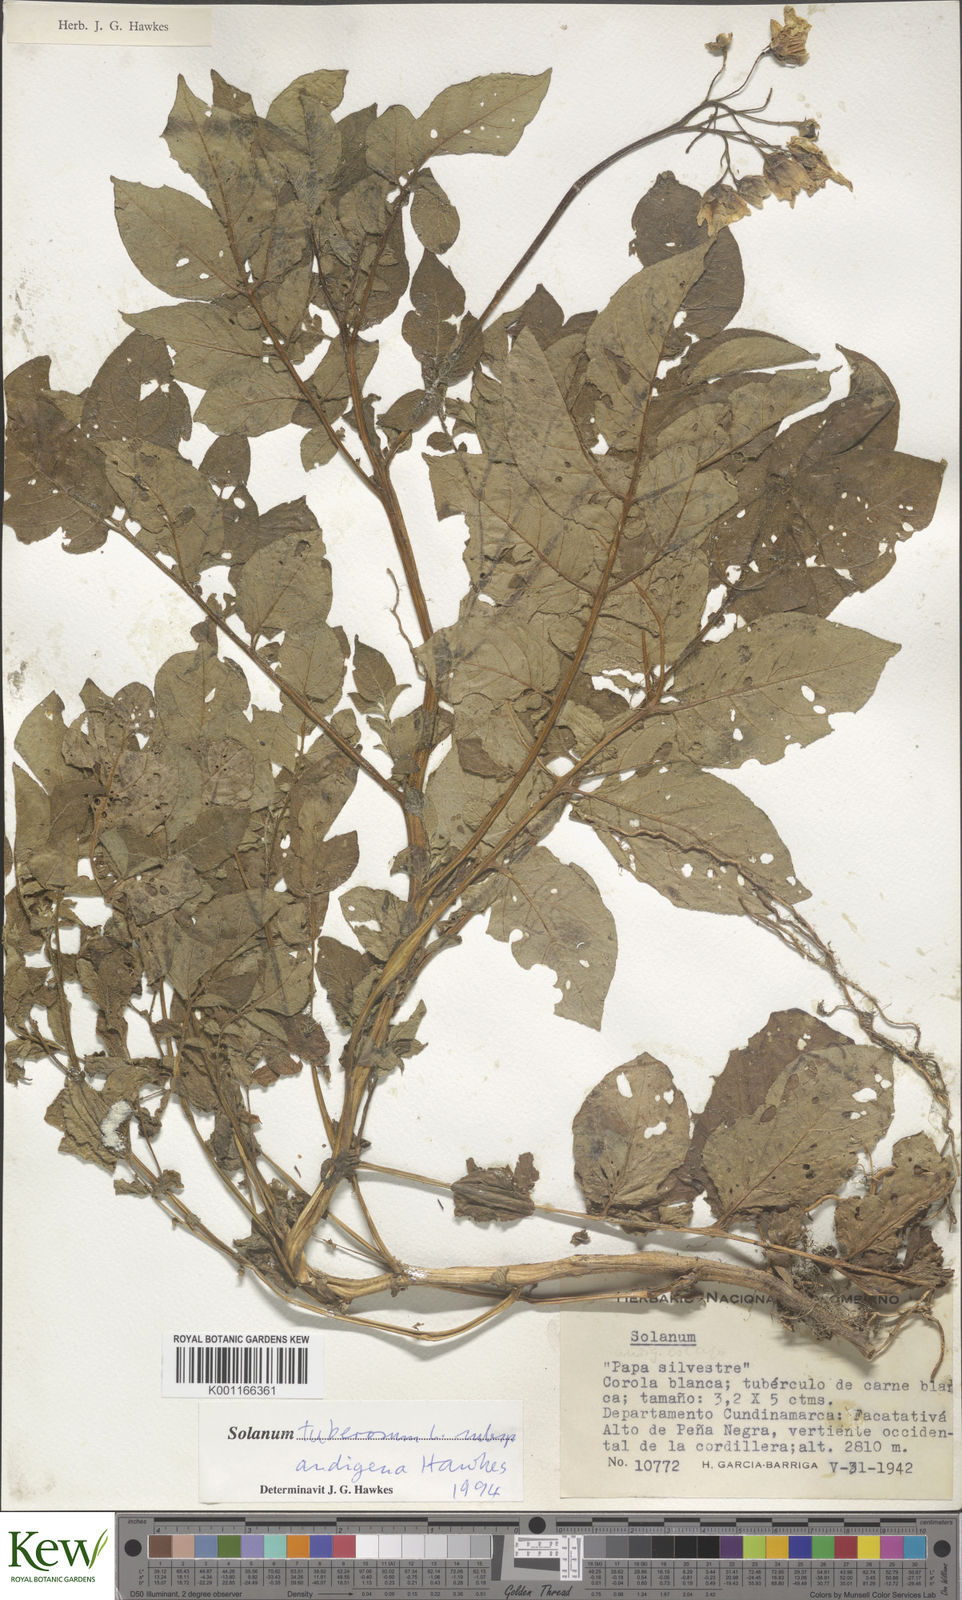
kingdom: Plantae
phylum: Tracheophyta
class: Magnoliopsida
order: Solanales
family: Solanaceae
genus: Solanum
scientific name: Solanum tuberosum
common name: Potato
